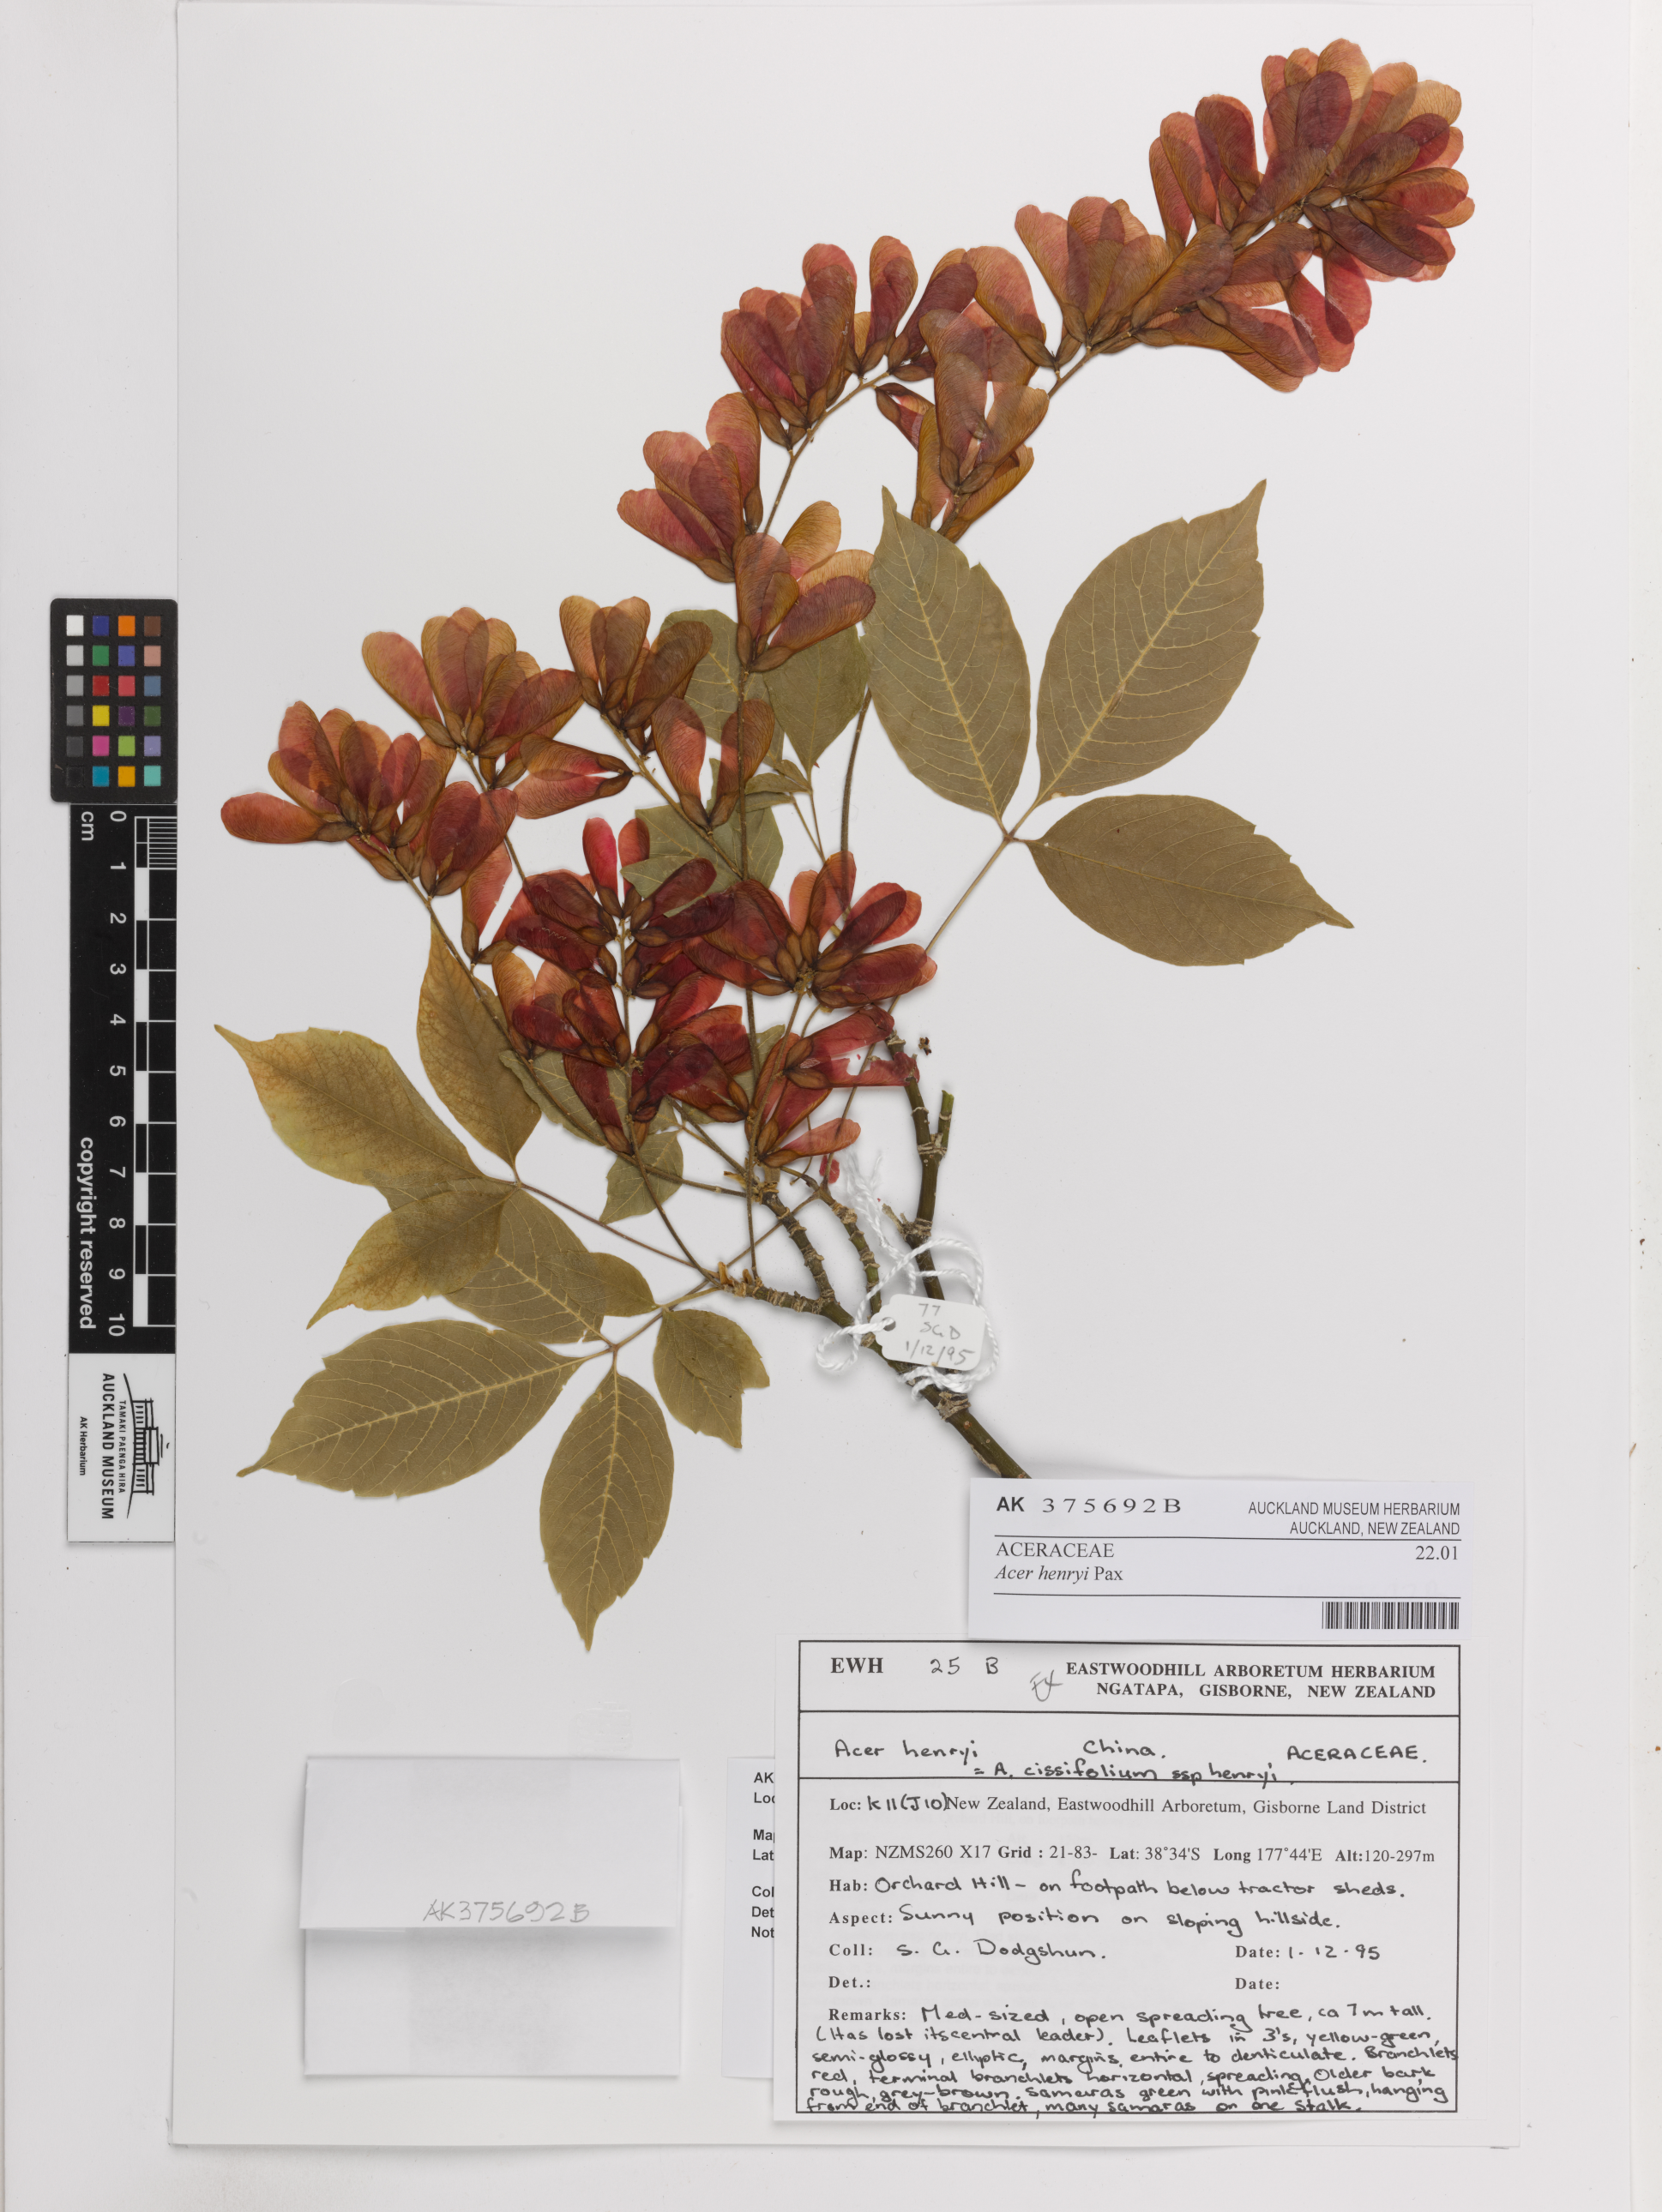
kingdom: Plantae
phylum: Tracheophyta
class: Magnoliopsida
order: Sapindales
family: Sapindaceae
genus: Acer
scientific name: Acer henryi
